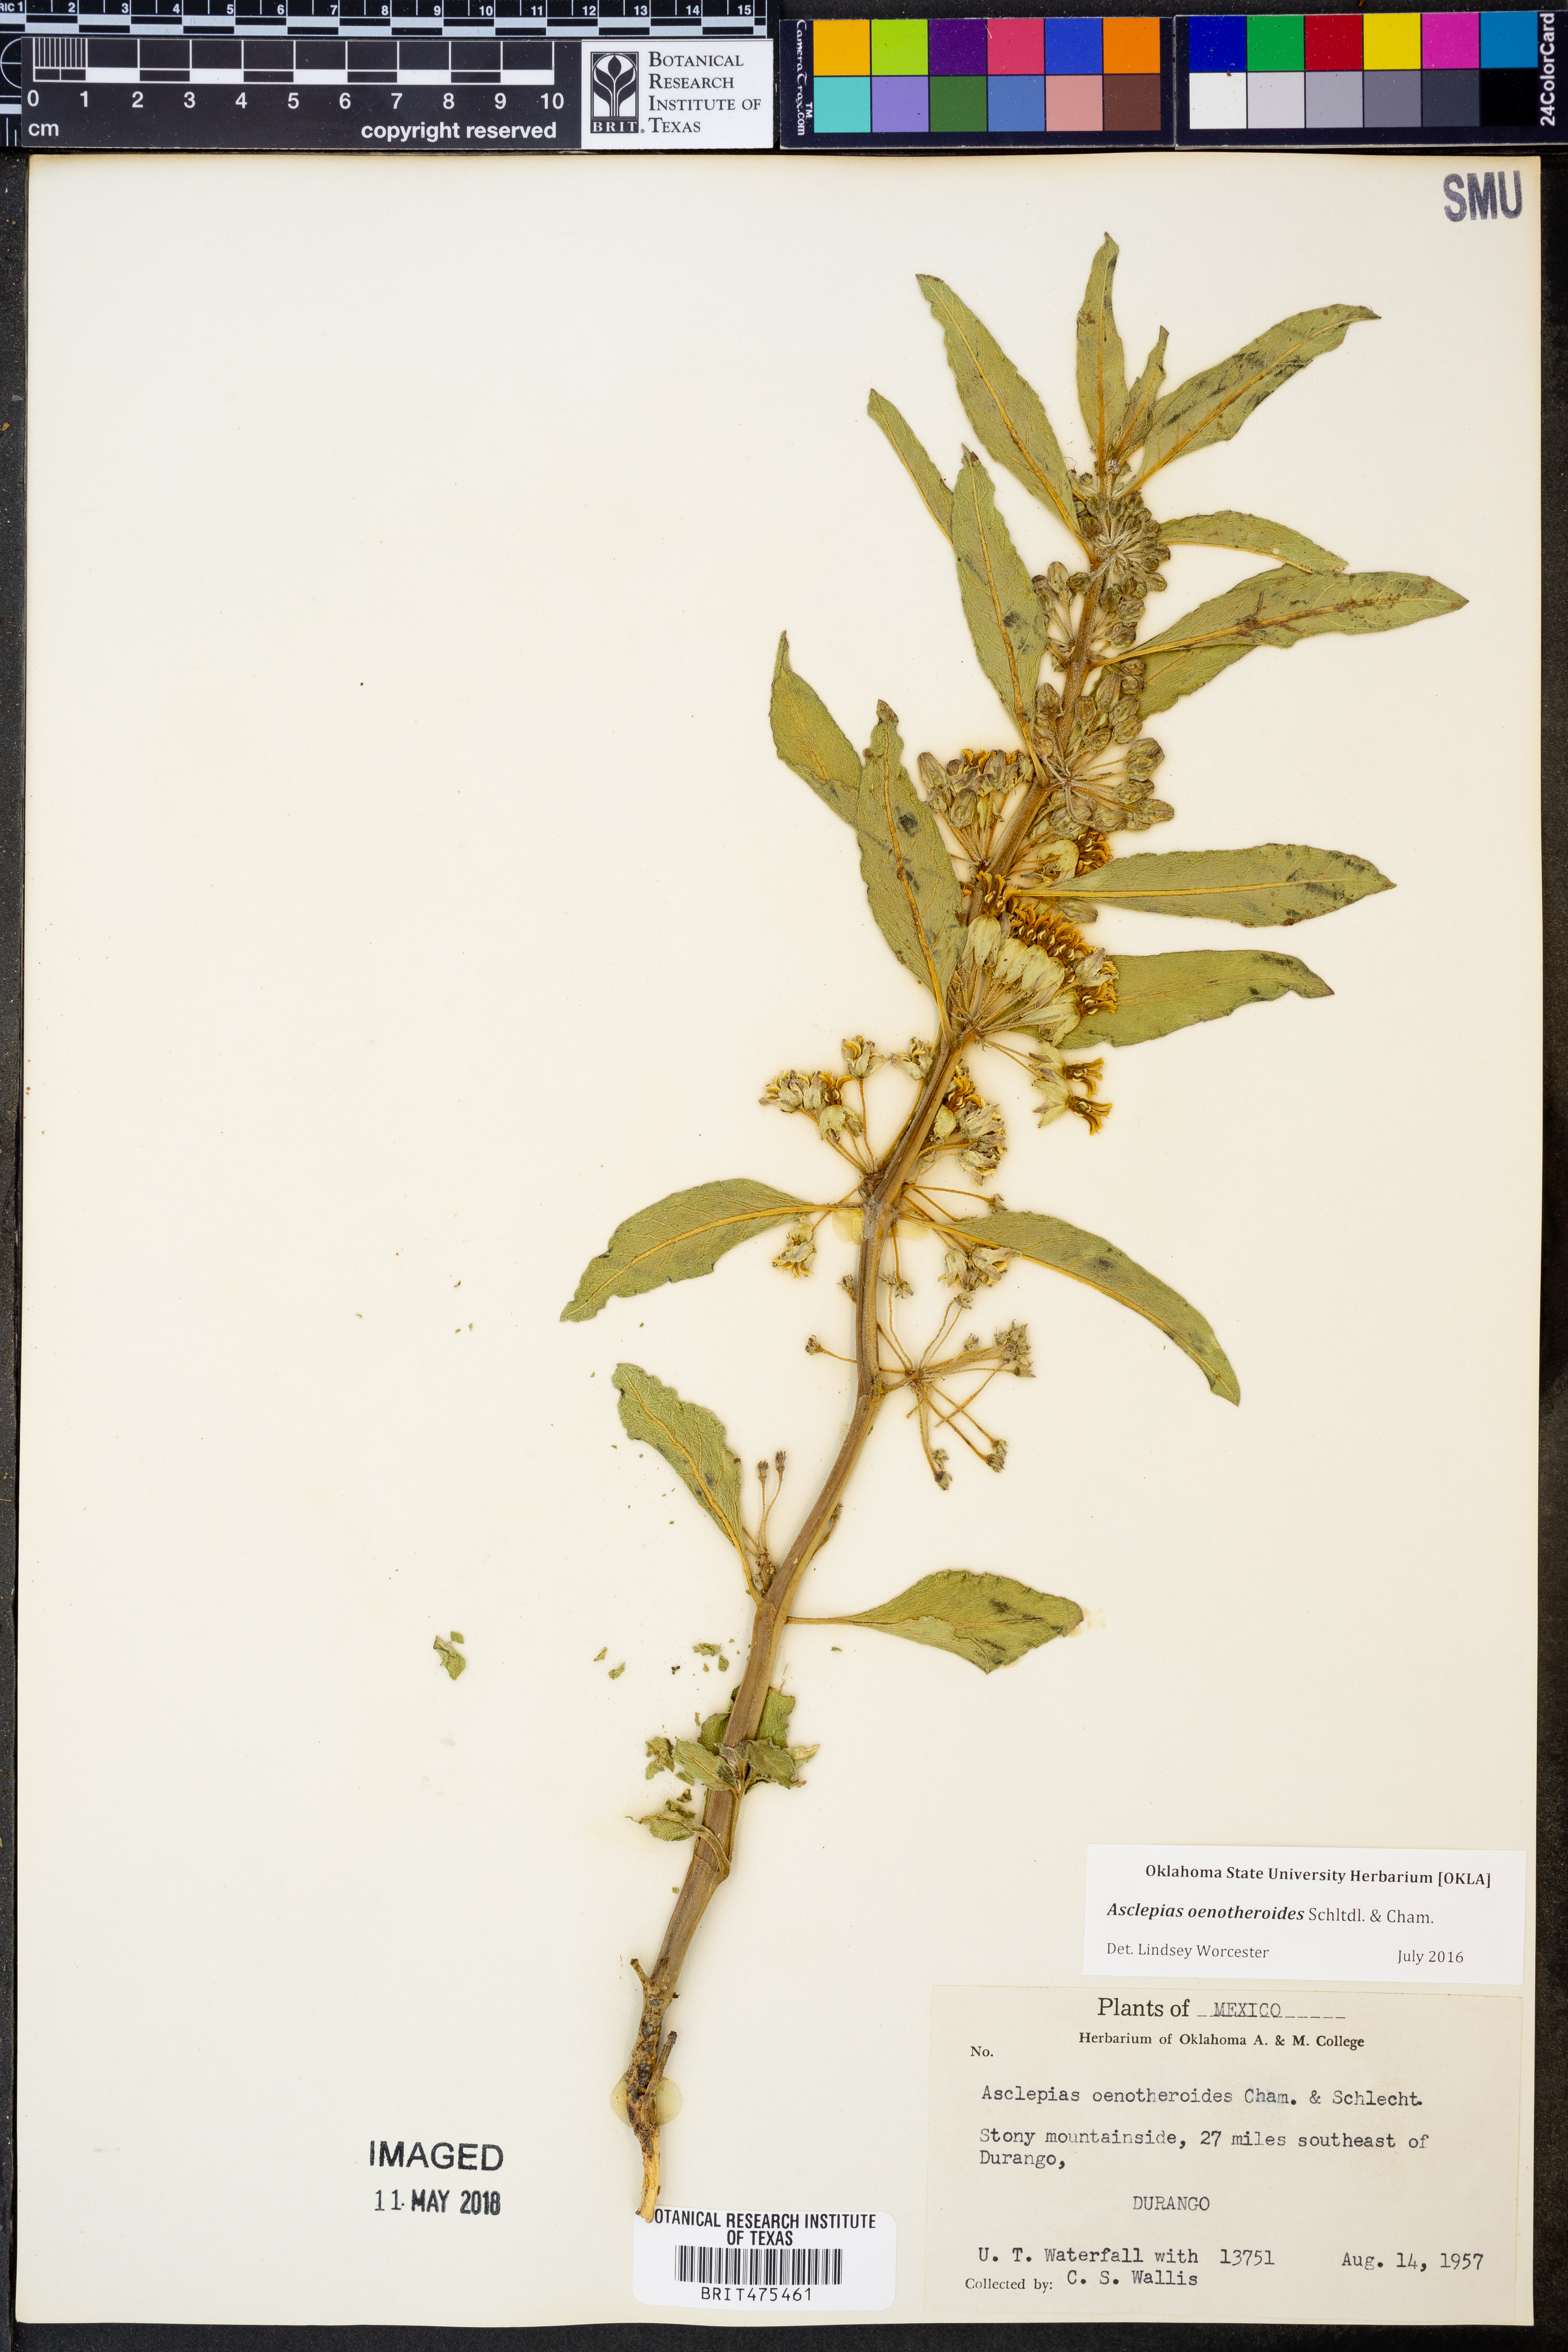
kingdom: Plantae
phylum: Tracheophyta
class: Magnoliopsida
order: Gentianales
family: Apocynaceae
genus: Asclepias
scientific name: Asclepias oenotheroides
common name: Zizotes milkweed
